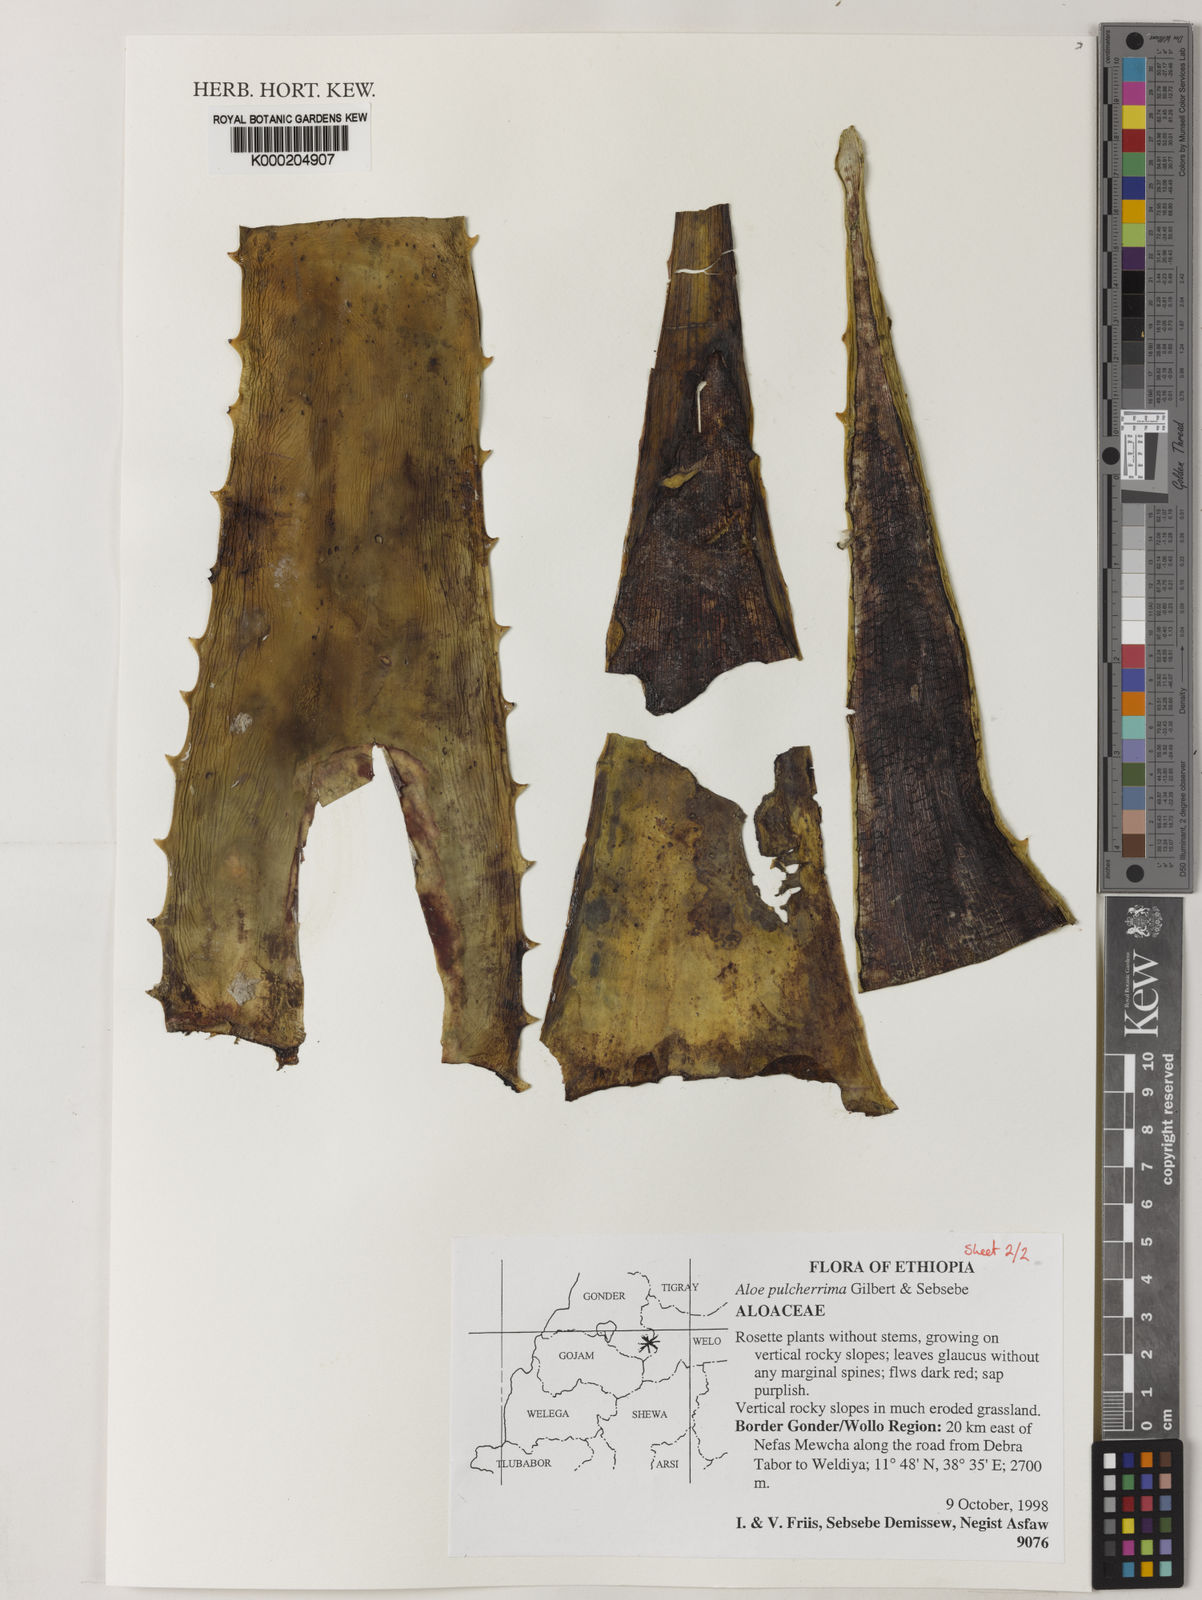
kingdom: Plantae
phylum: Tracheophyta
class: Liliopsida
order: Asparagales
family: Asphodelaceae
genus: Aloe
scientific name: Aloe pulcherrima
